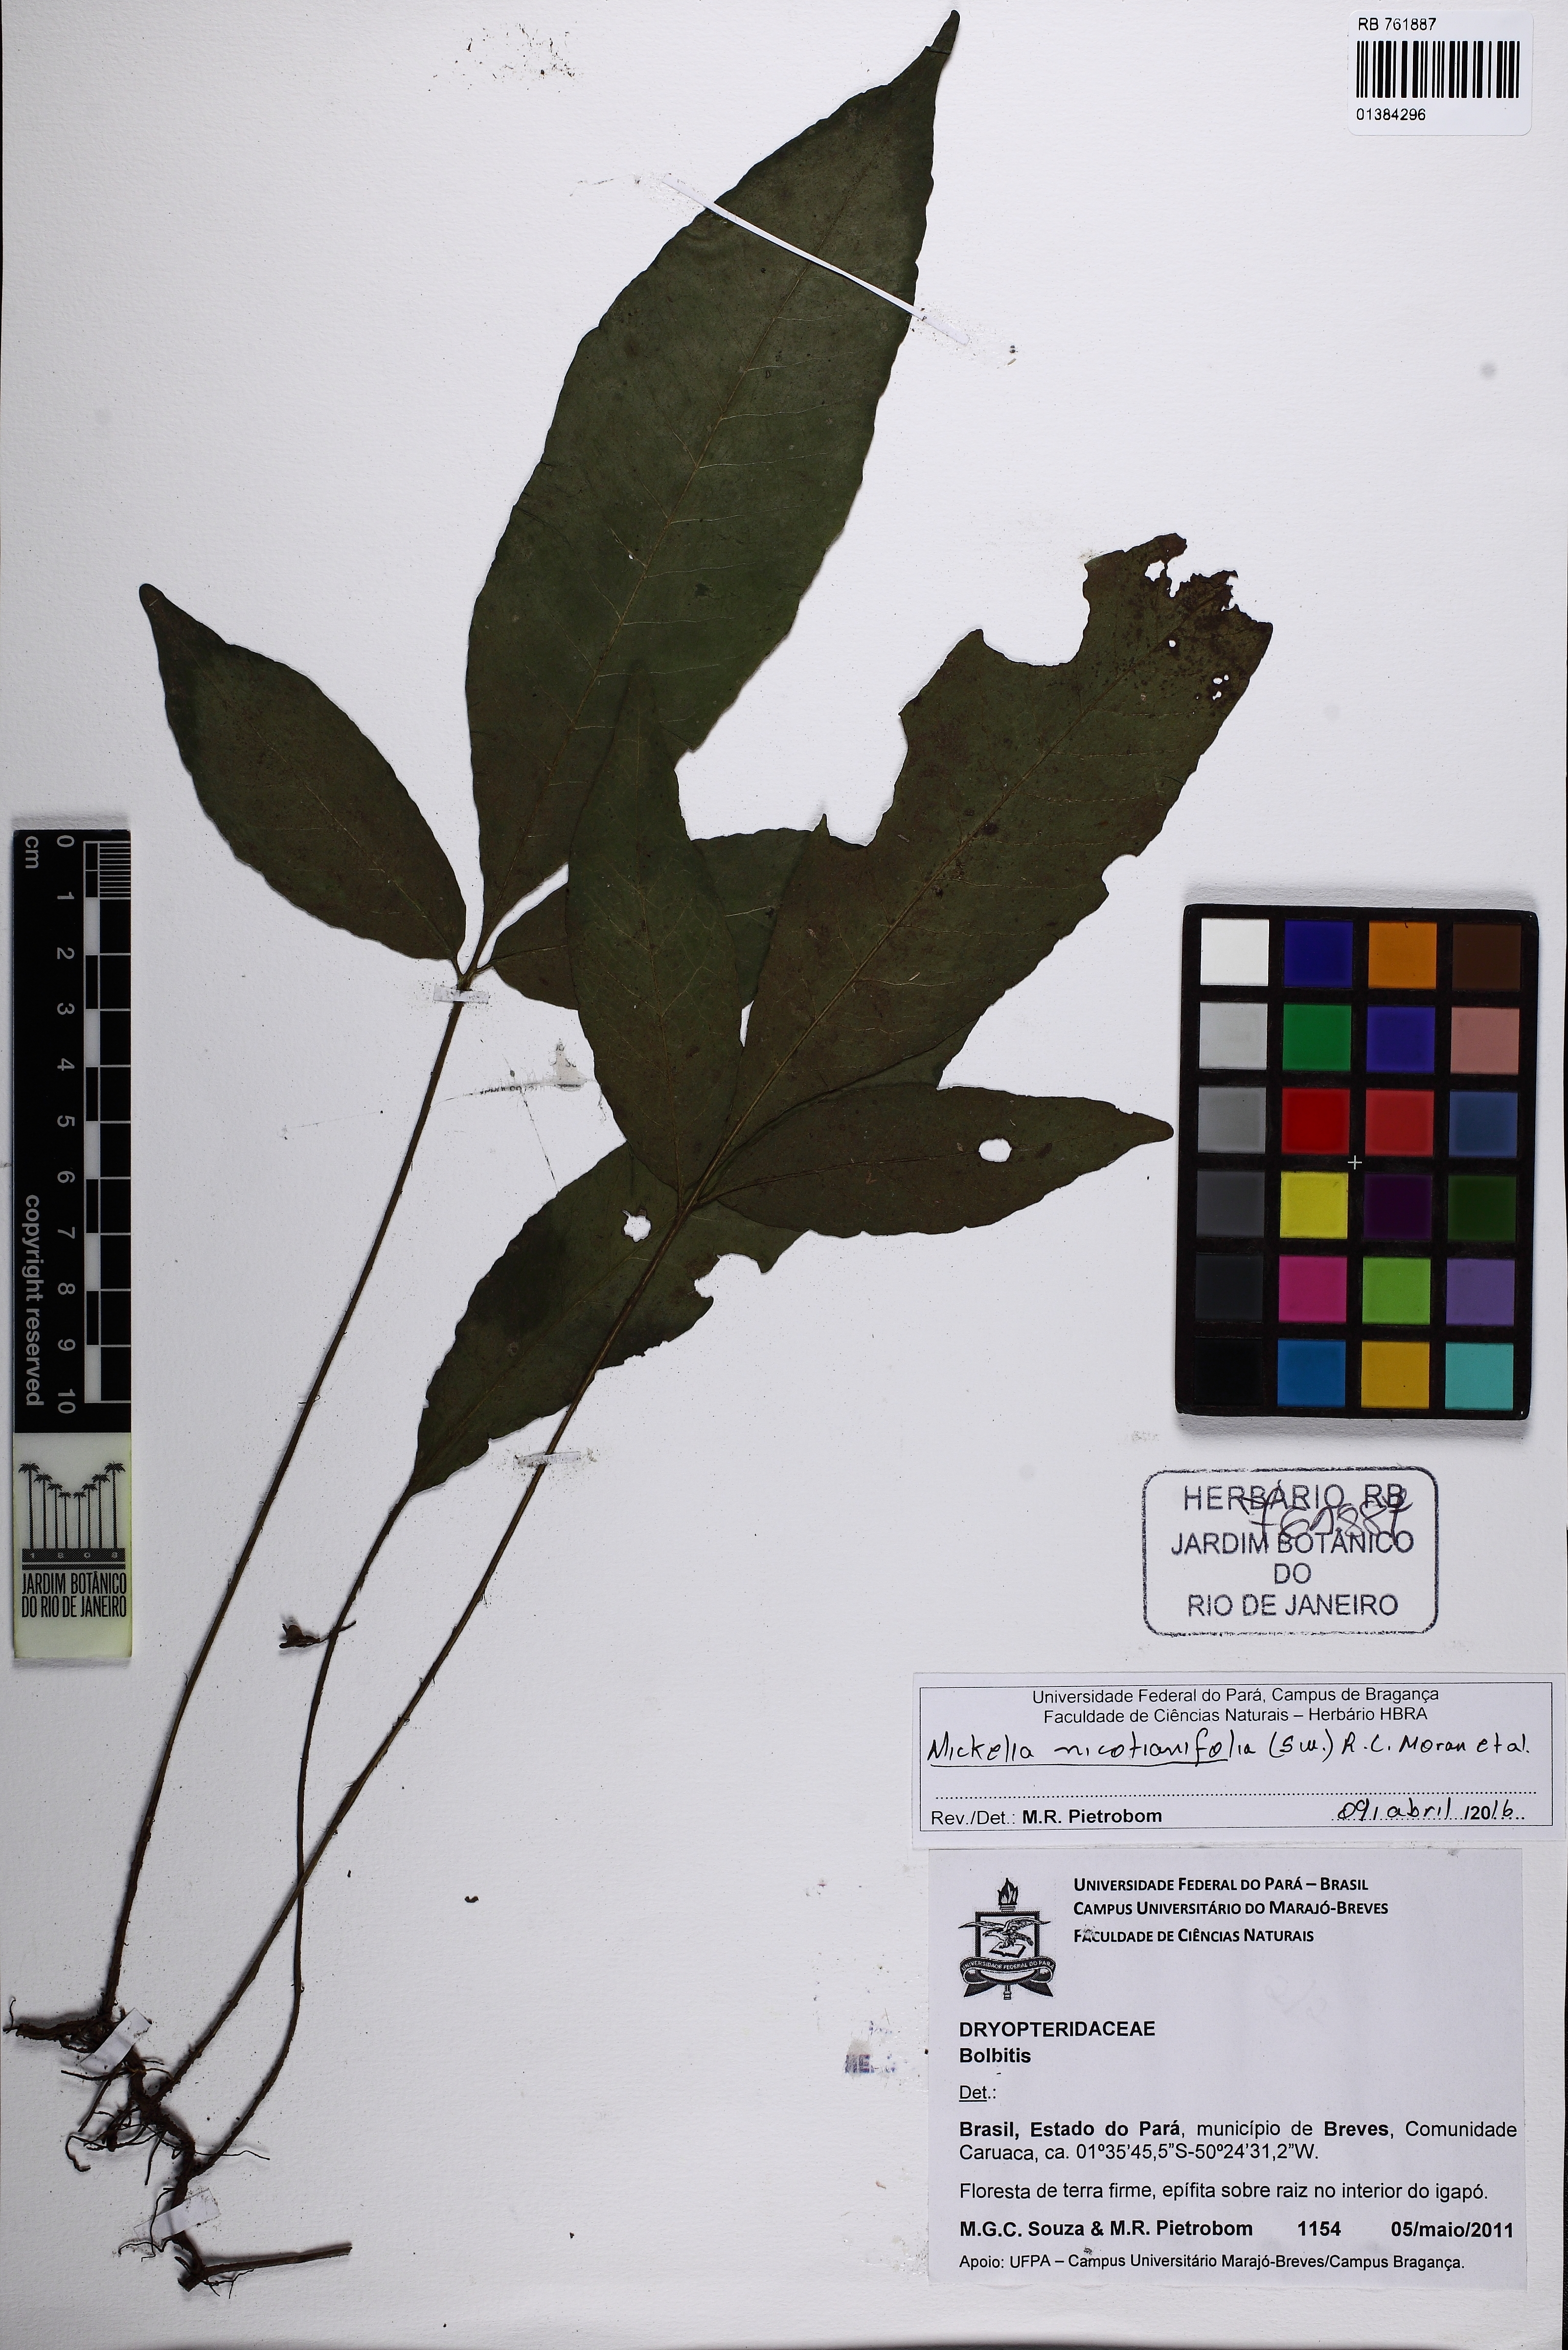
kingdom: Plantae
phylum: Tracheophyta
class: Polypodiopsida
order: Polypodiales
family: Dryopteridaceae
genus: Mickelia
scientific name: Mickelia nicotianifolia
